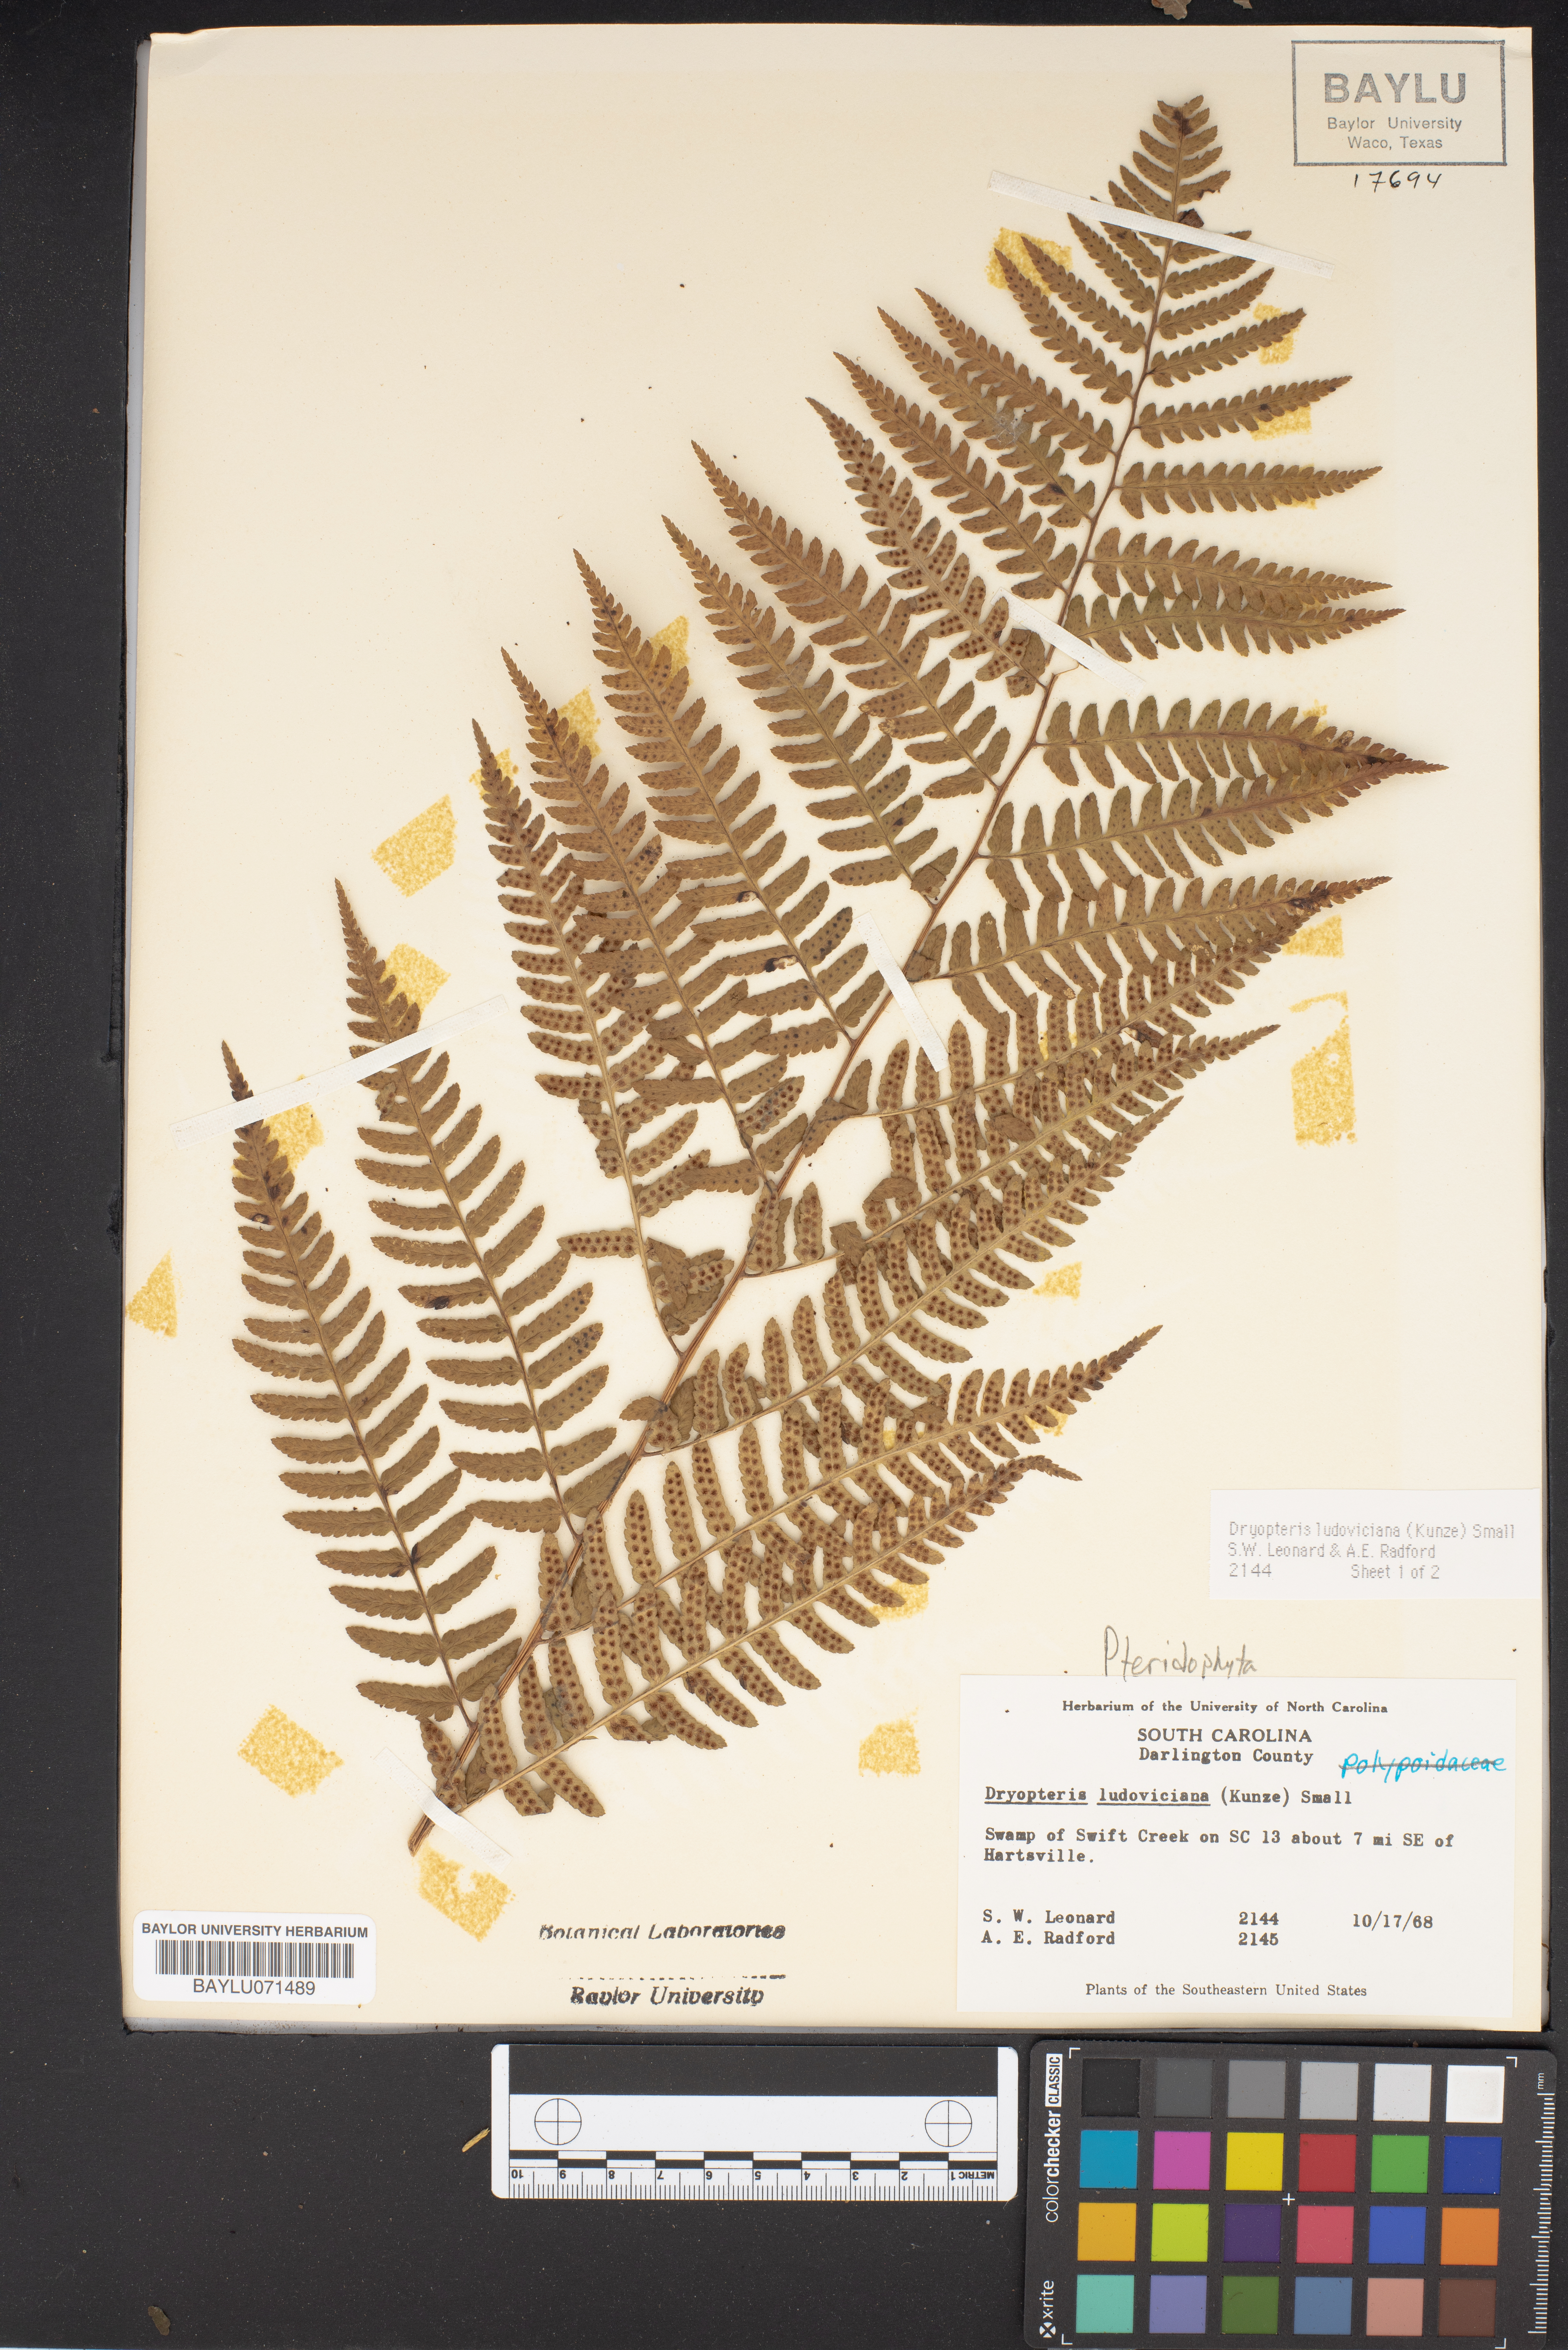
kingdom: Plantae
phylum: Tracheophyta
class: Polypodiopsida
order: Polypodiales
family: Dryopteridaceae
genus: Dryopteris
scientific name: Dryopteris ludoviciana
